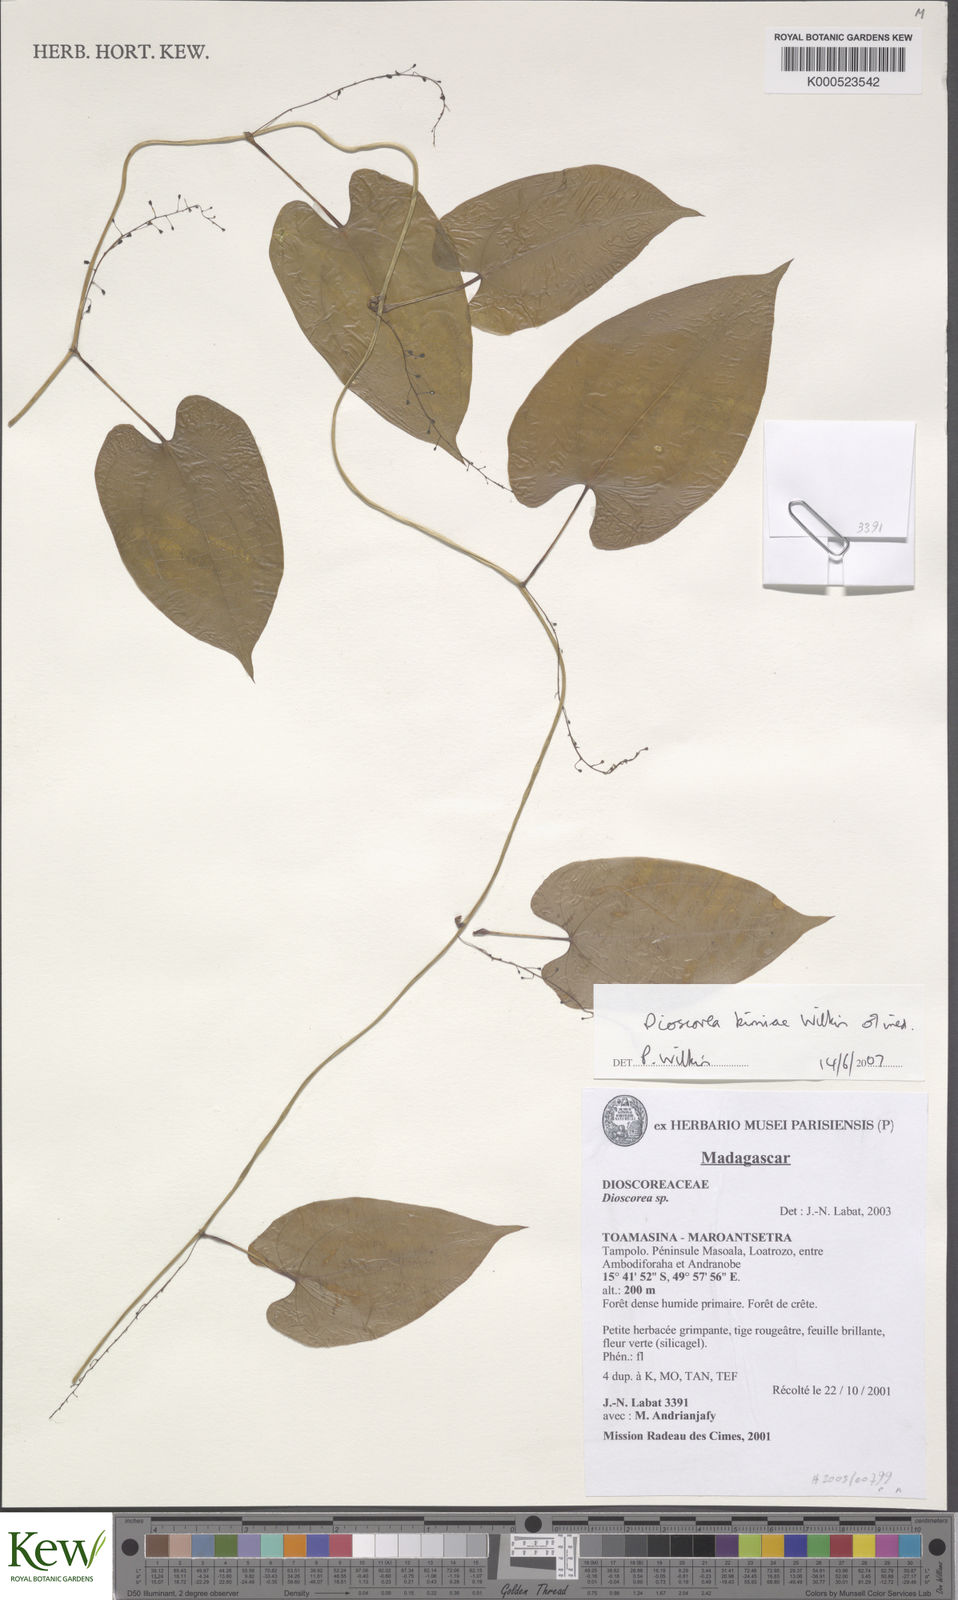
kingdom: Plantae
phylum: Tracheophyta
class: Liliopsida
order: Dioscoreales
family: Dioscoreaceae
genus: Dioscorea
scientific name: Dioscorea kimiae
